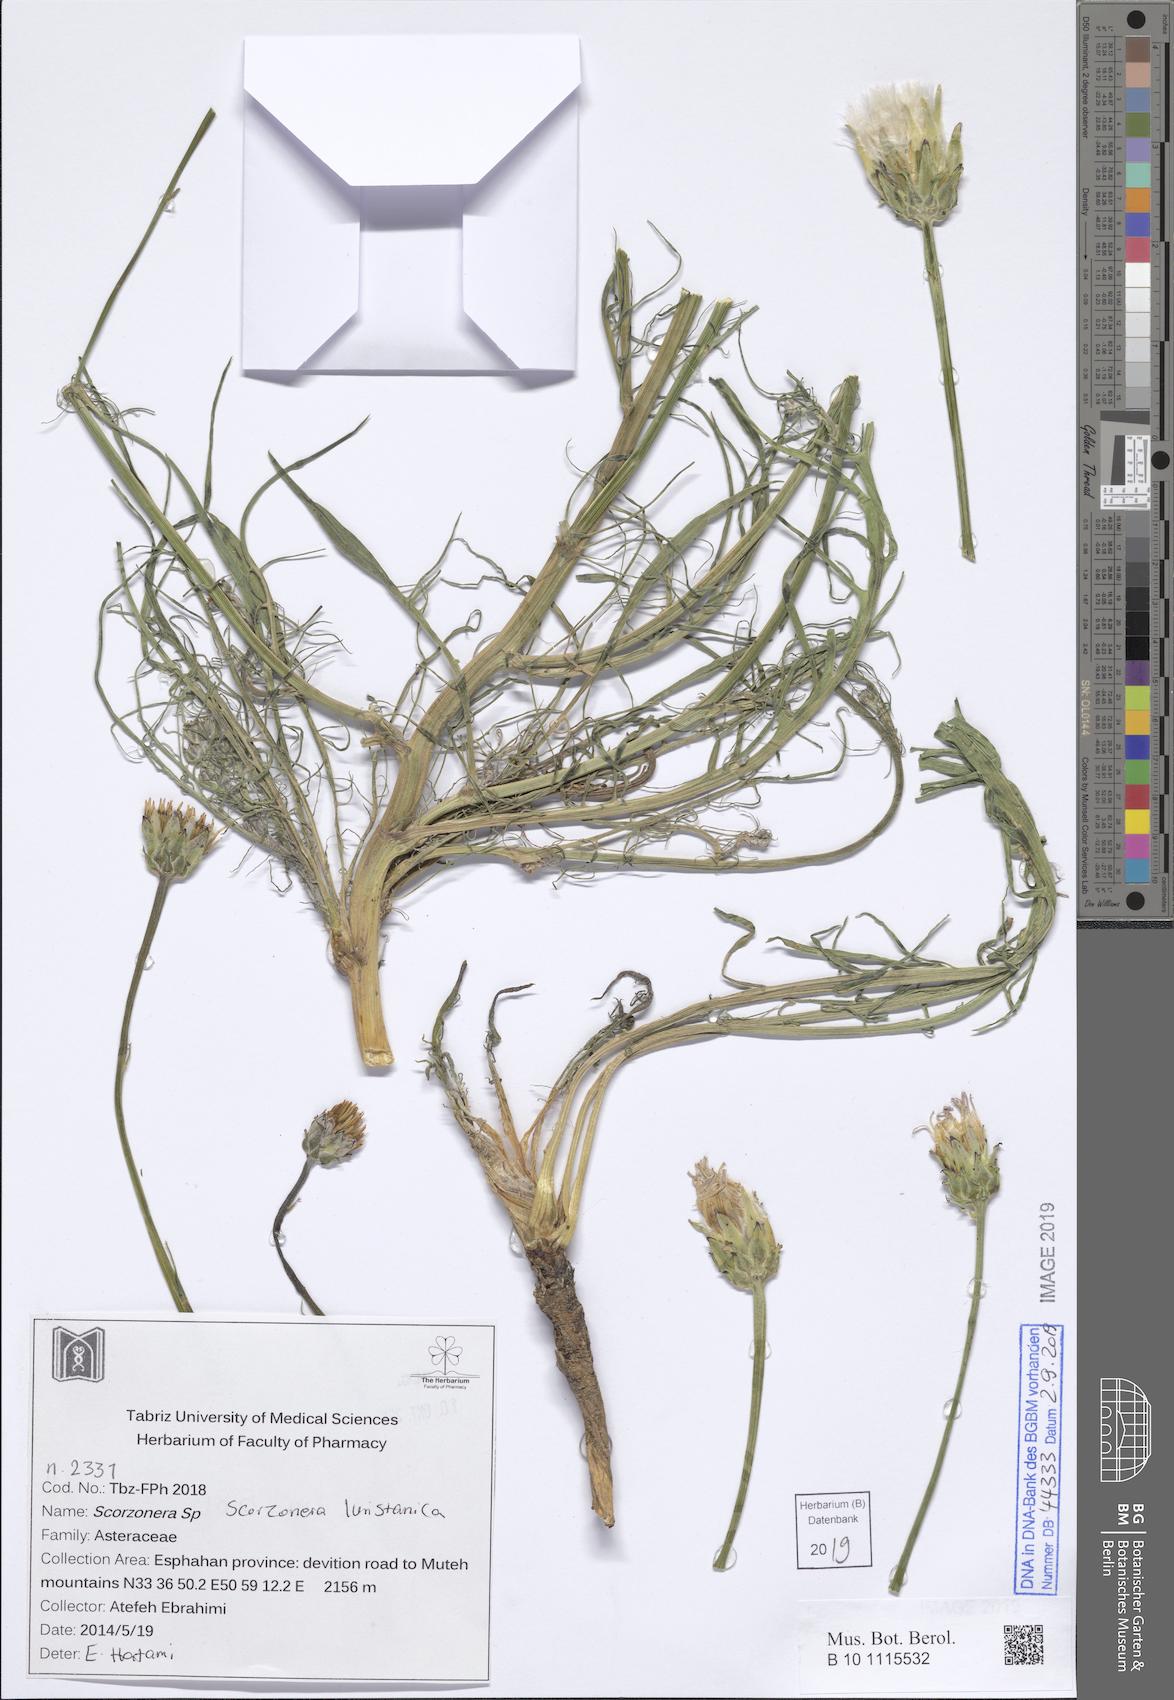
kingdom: Plantae
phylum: Tracheophyta
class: Magnoliopsida
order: Asterales
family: Asteraceae
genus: Scorzonera
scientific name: Scorzonera persepolitana
